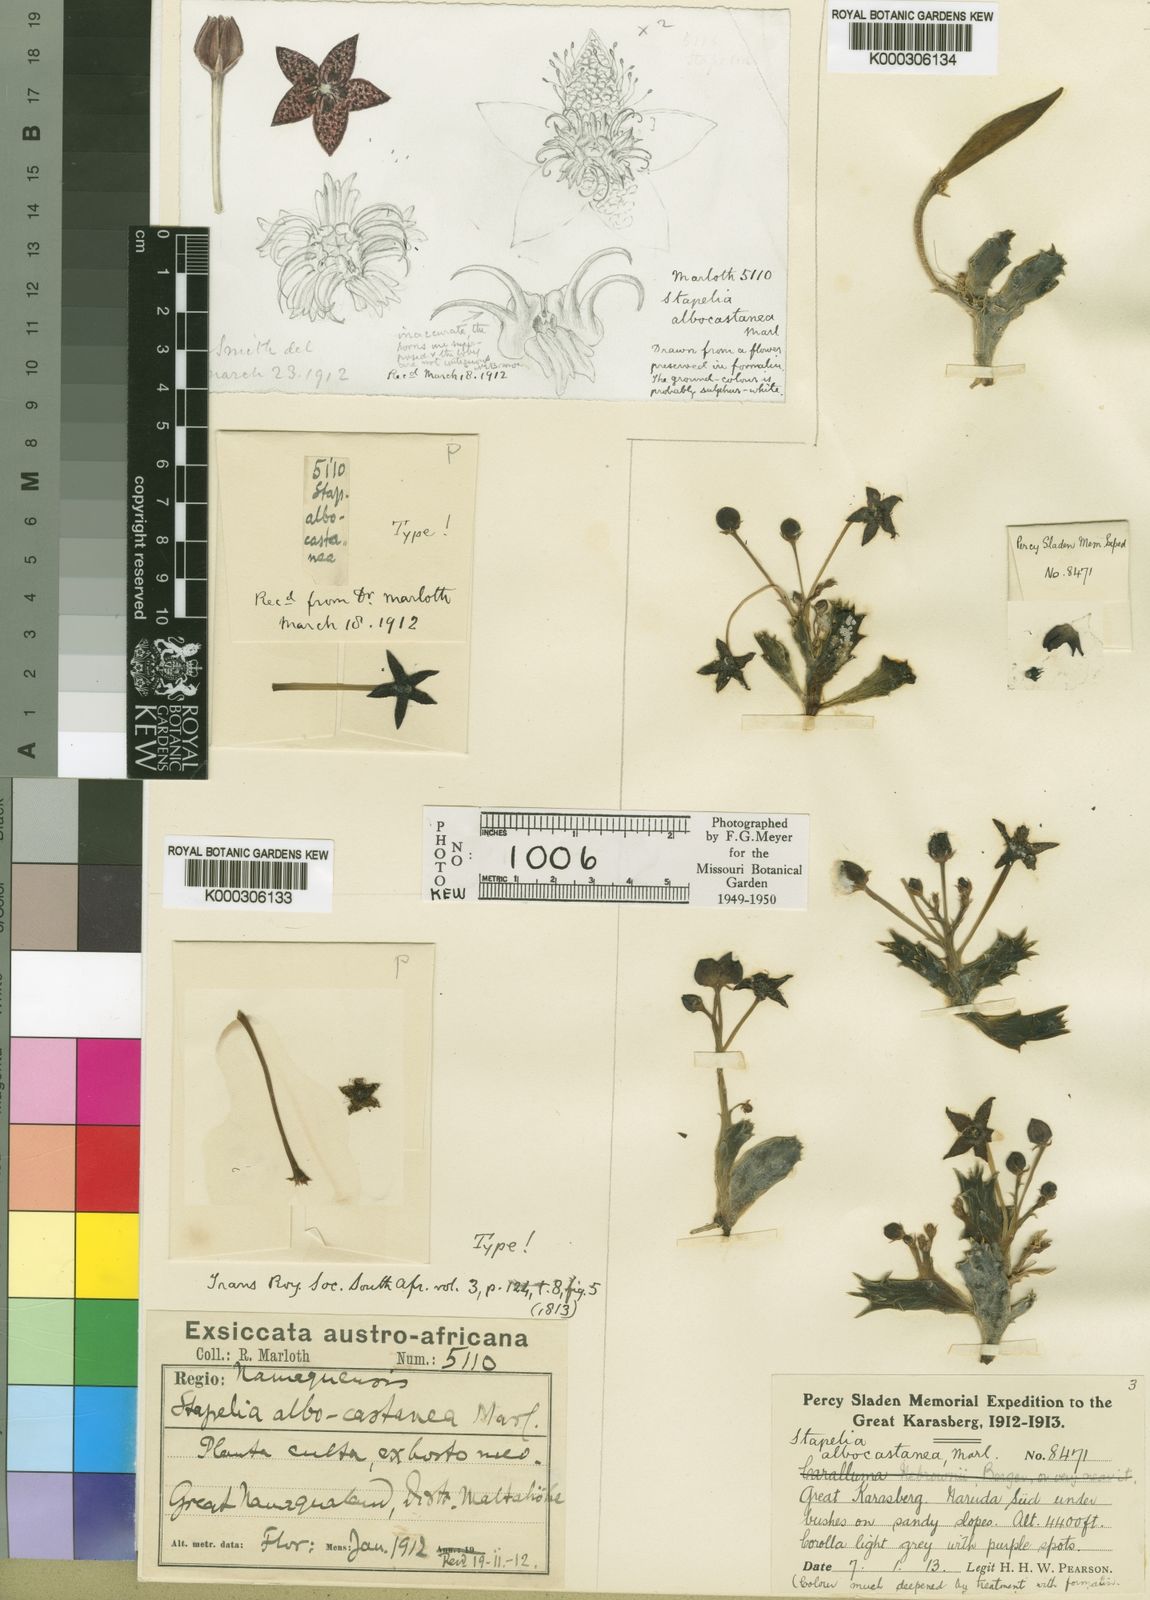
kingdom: Plantae
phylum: Tracheophyta
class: Magnoliopsida
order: Gentianales
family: Apocynaceae
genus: Ceropegia
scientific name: Ceropegia albocastanea
